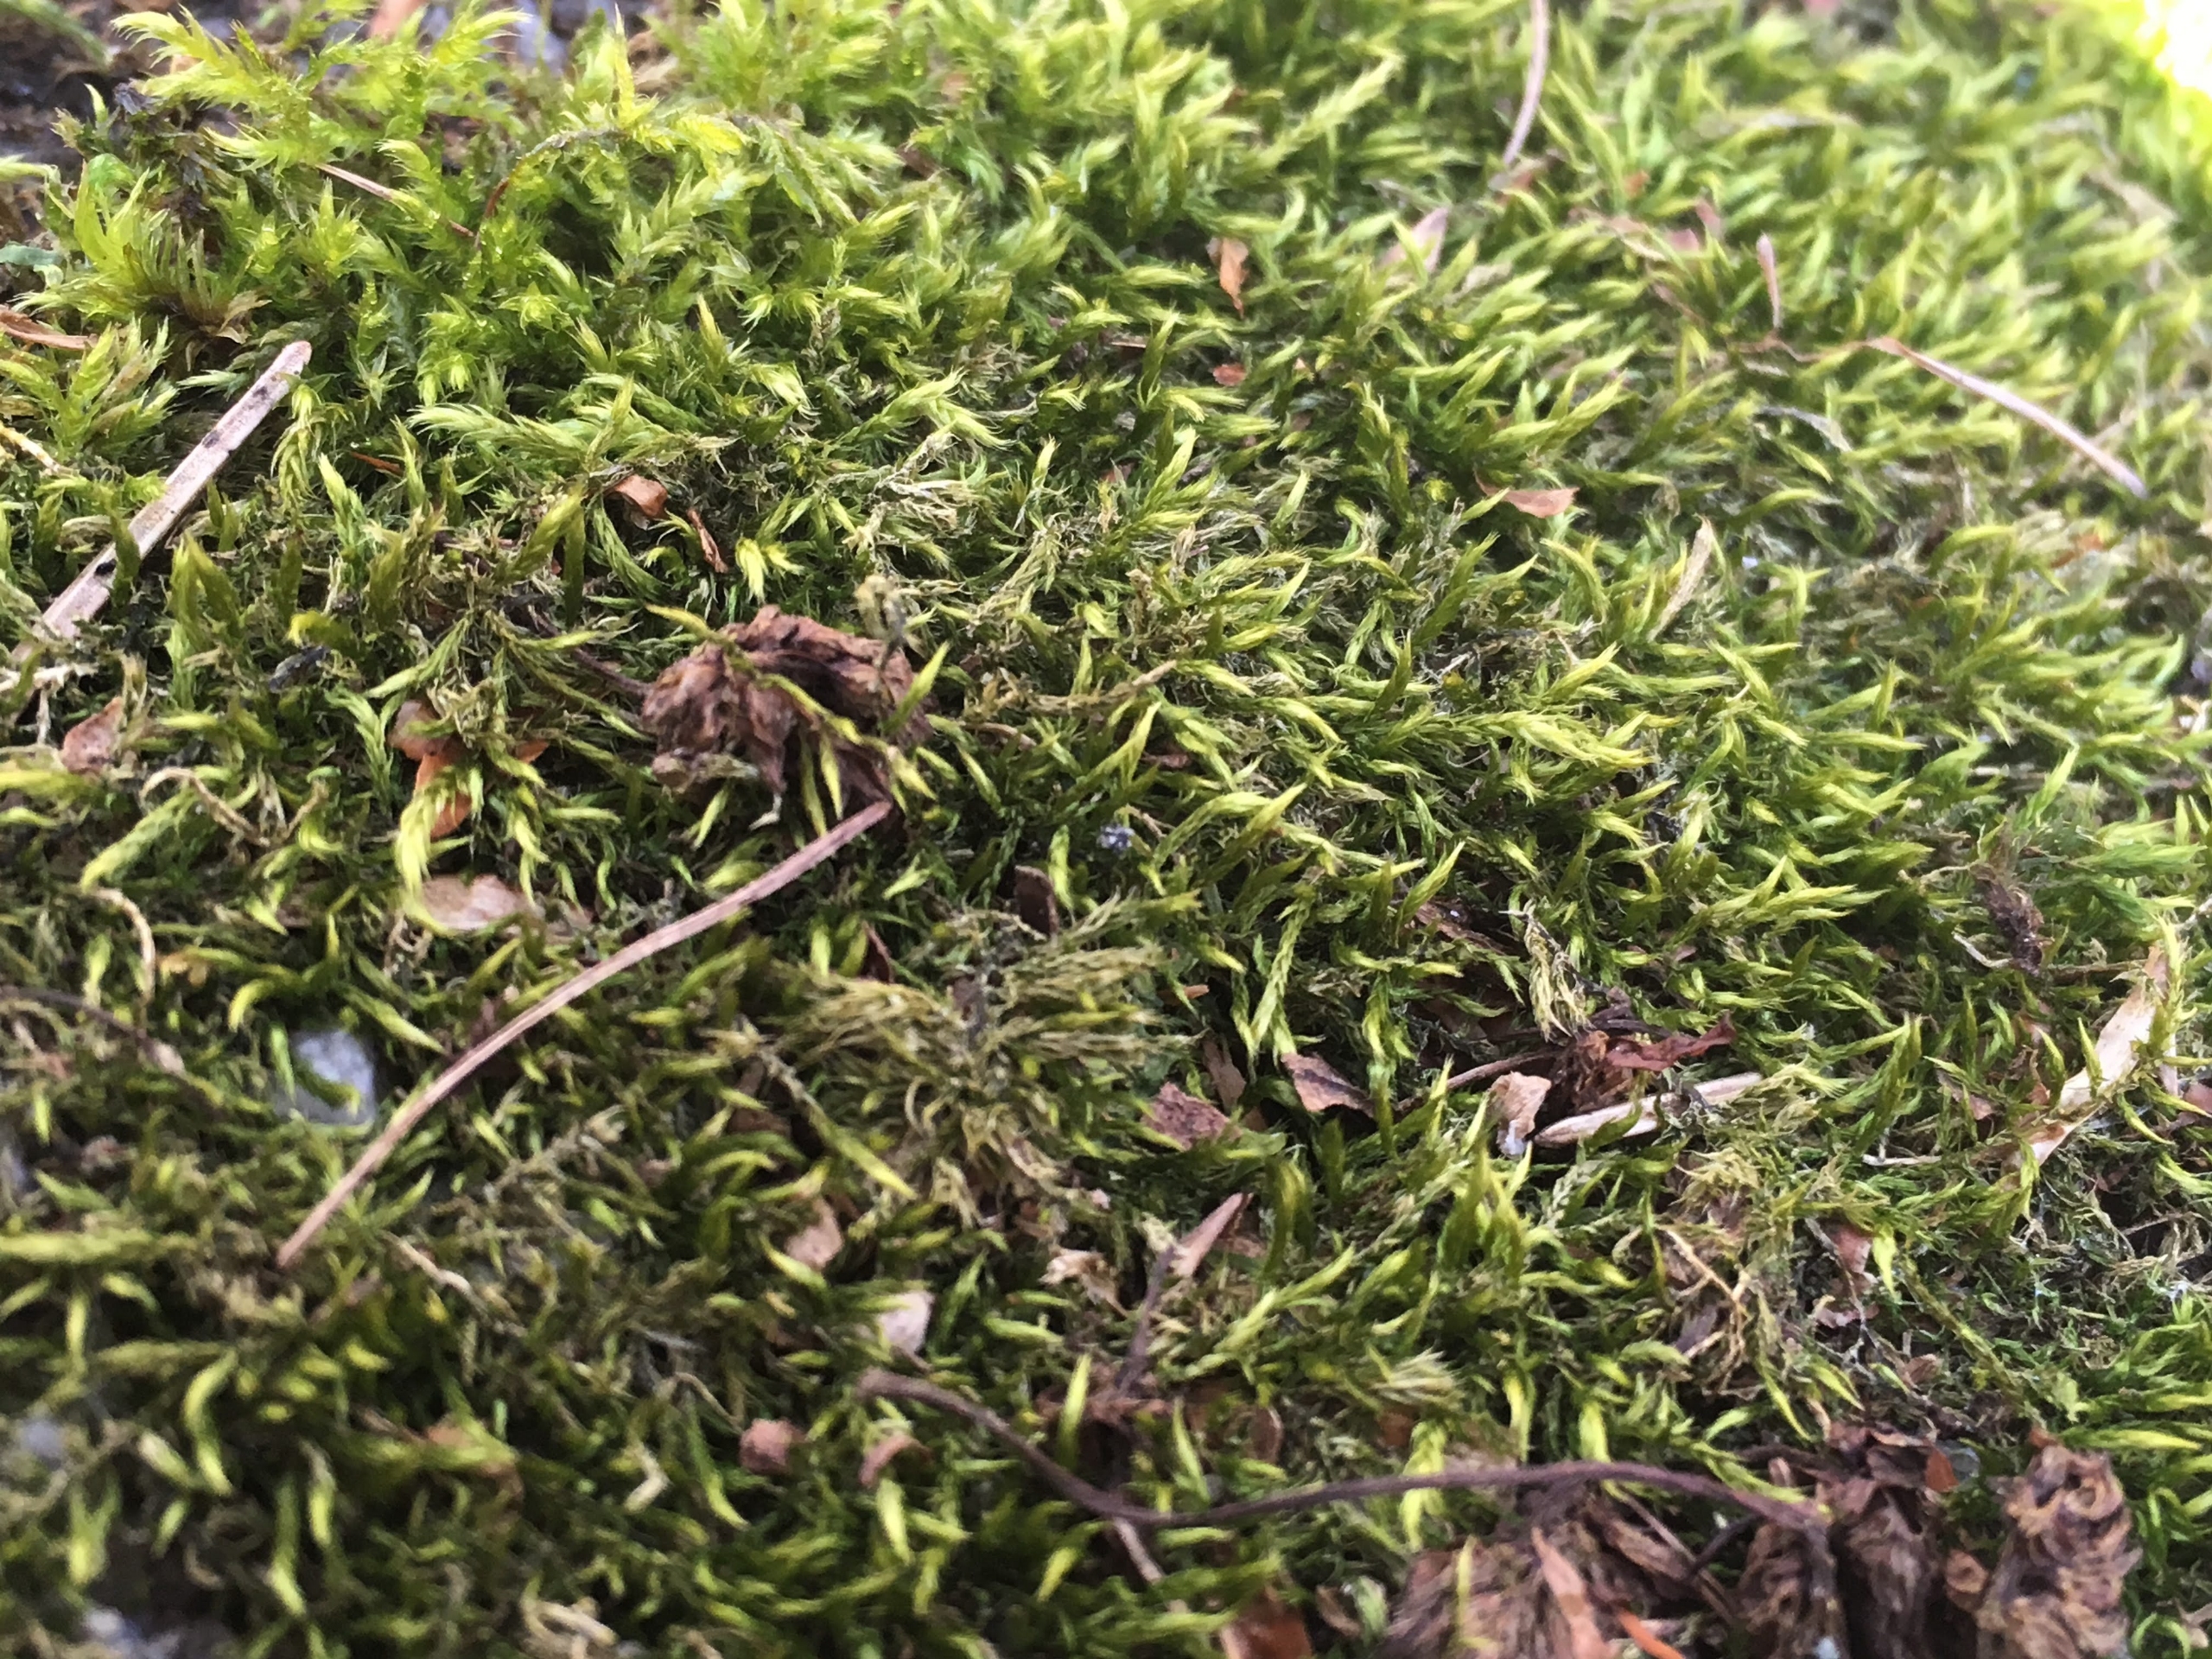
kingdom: Plantae
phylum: Bryophyta
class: Bryopsida
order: Hypnales
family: Brachytheciaceae
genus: Sciuro-hypnum
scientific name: Sciuro-hypnum populeum
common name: Park-kortkapsel
